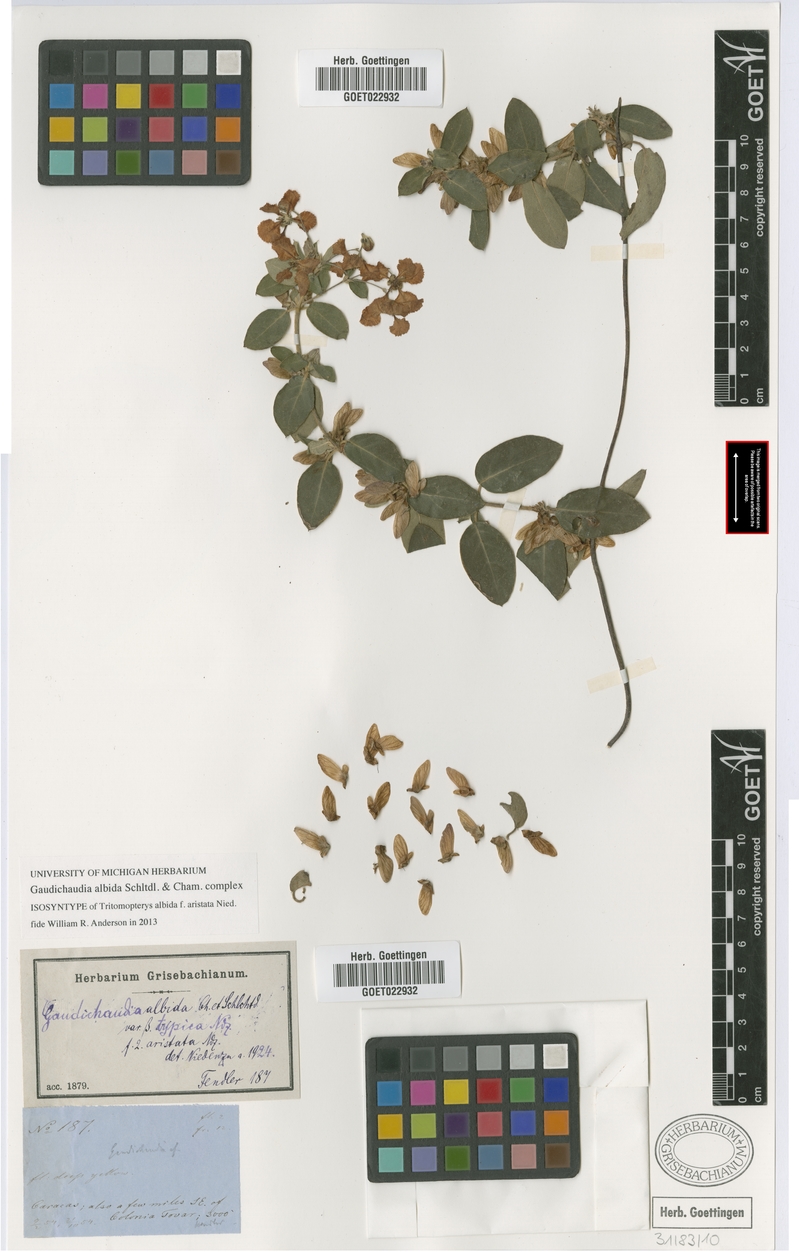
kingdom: Plantae
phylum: Tracheophyta
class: Magnoliopsida
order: Malpighiales
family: Malpighiaceae
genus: Gaudichaudia
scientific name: Gaudichaudia albida
